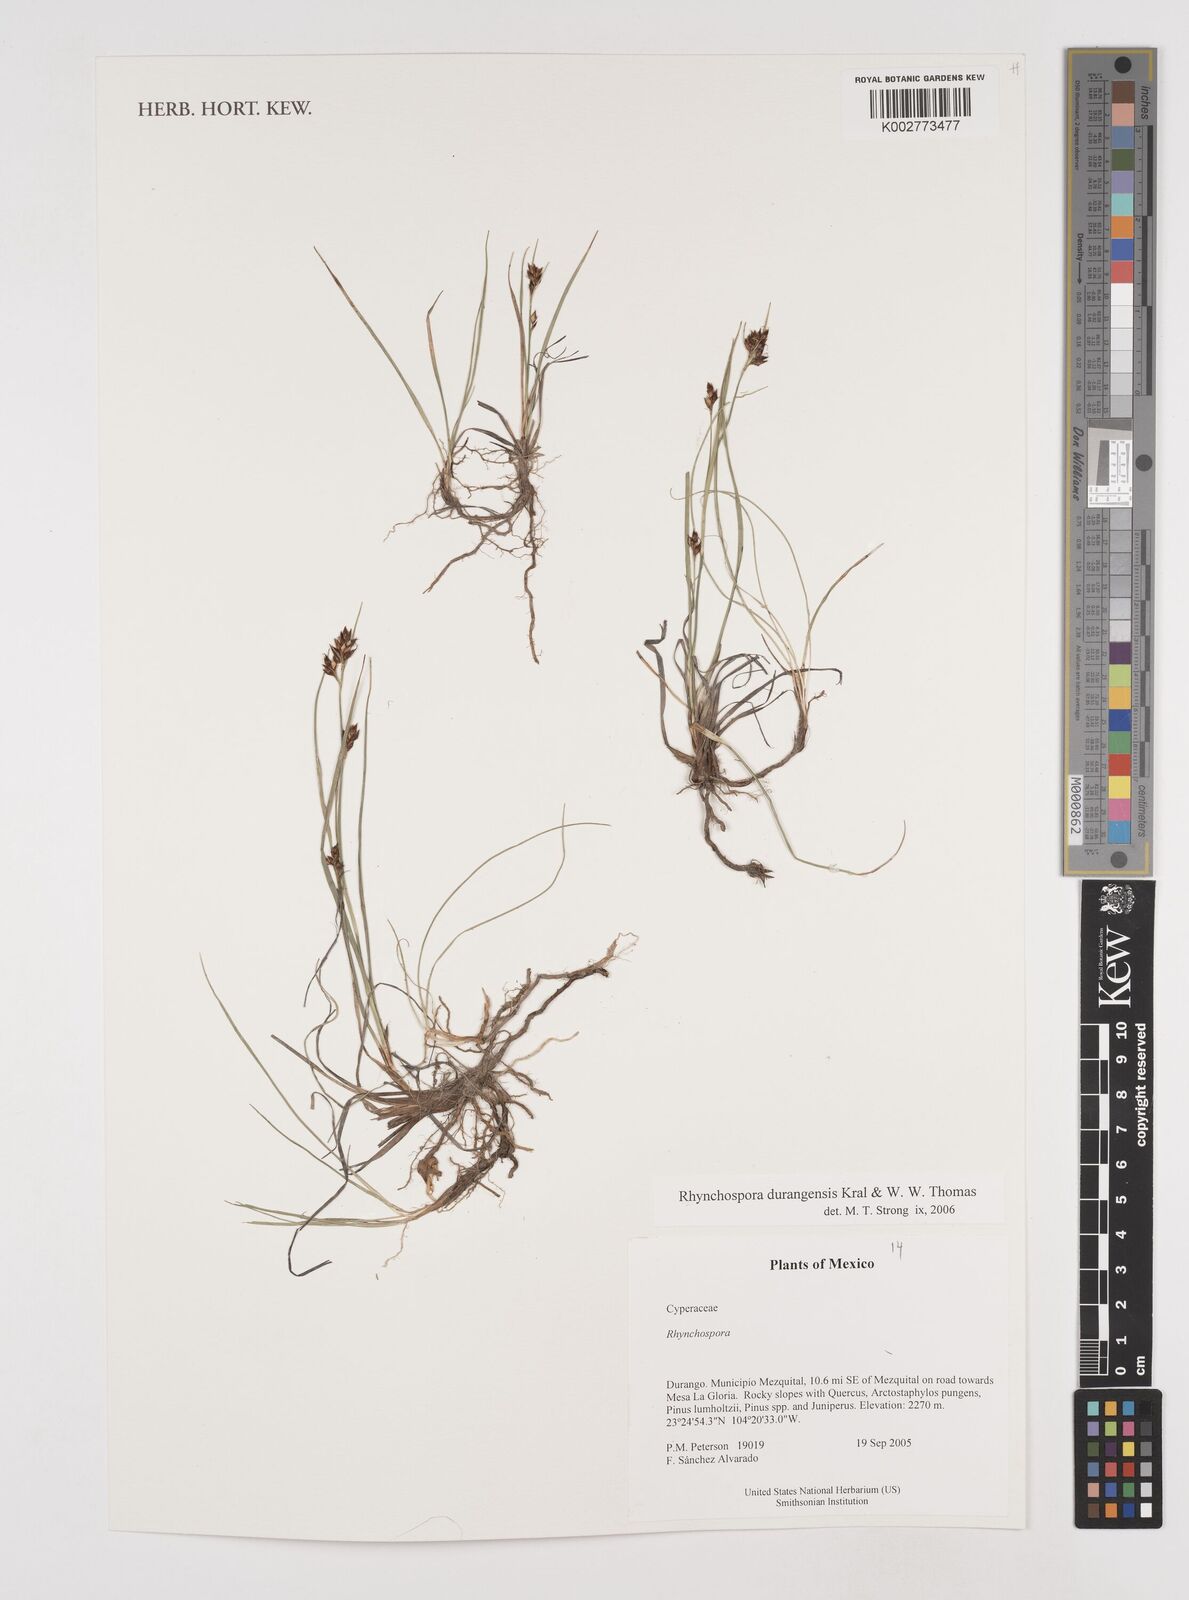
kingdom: Plantae
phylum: Tracheophyta
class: Liliopsida
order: Poales
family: Cyperaceae
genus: Rhynchospora
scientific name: Rhynchospora durangensis
